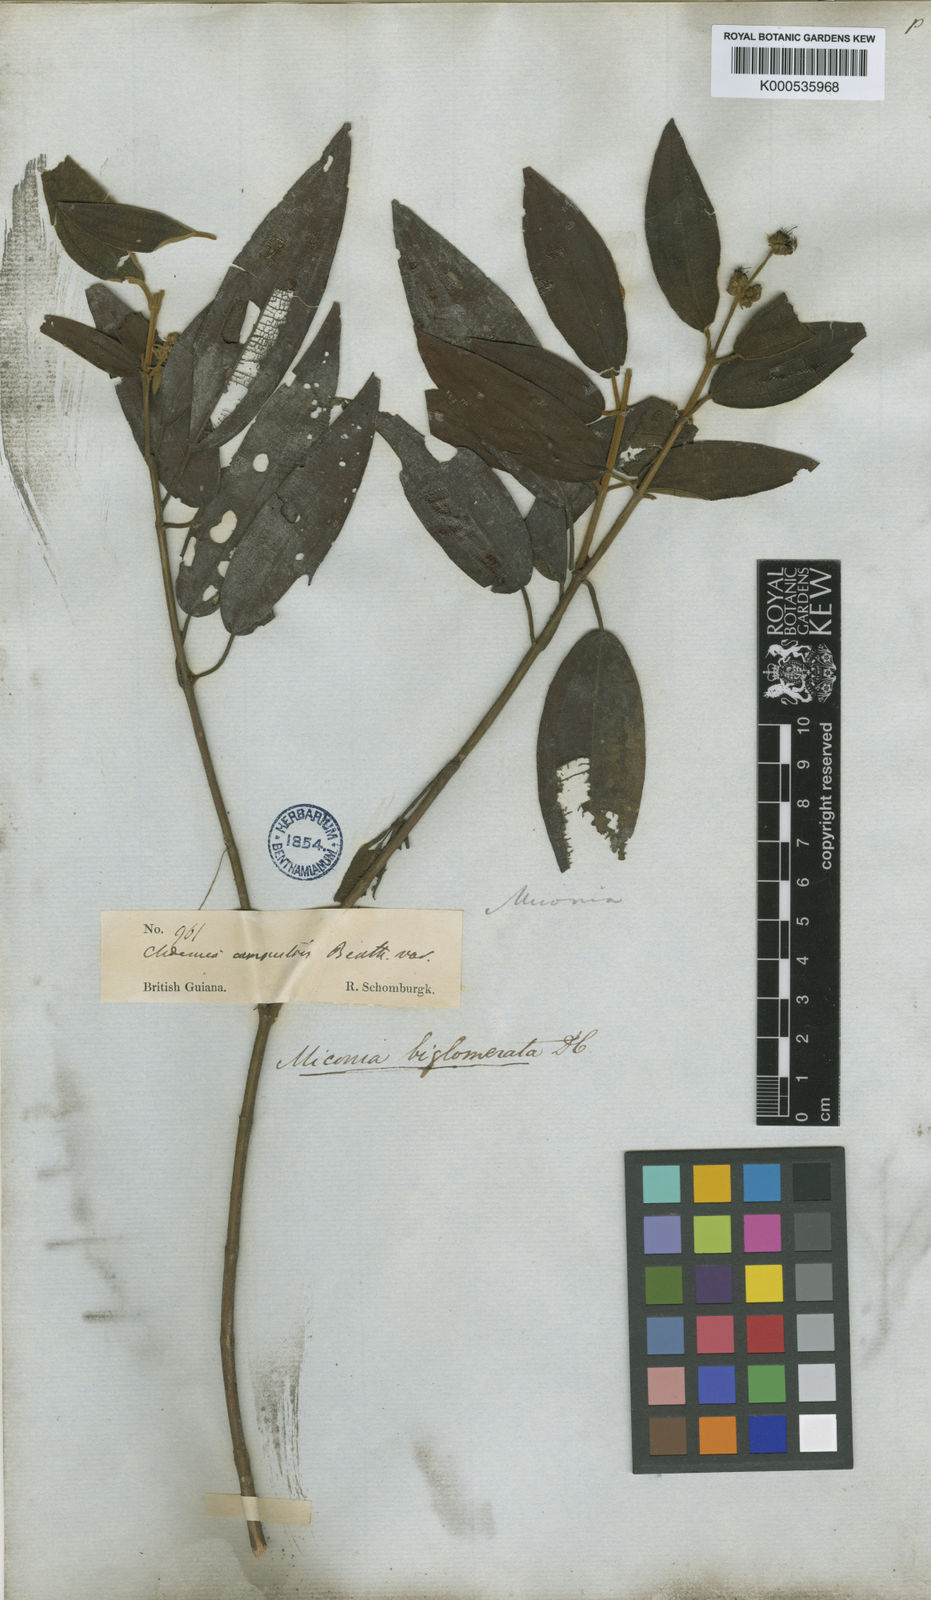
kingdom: Plantae
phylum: Tracheophyta
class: Magnoliopsida
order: Myrtales
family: Melastomataceae
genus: Miconia
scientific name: Miconia biglomerata
